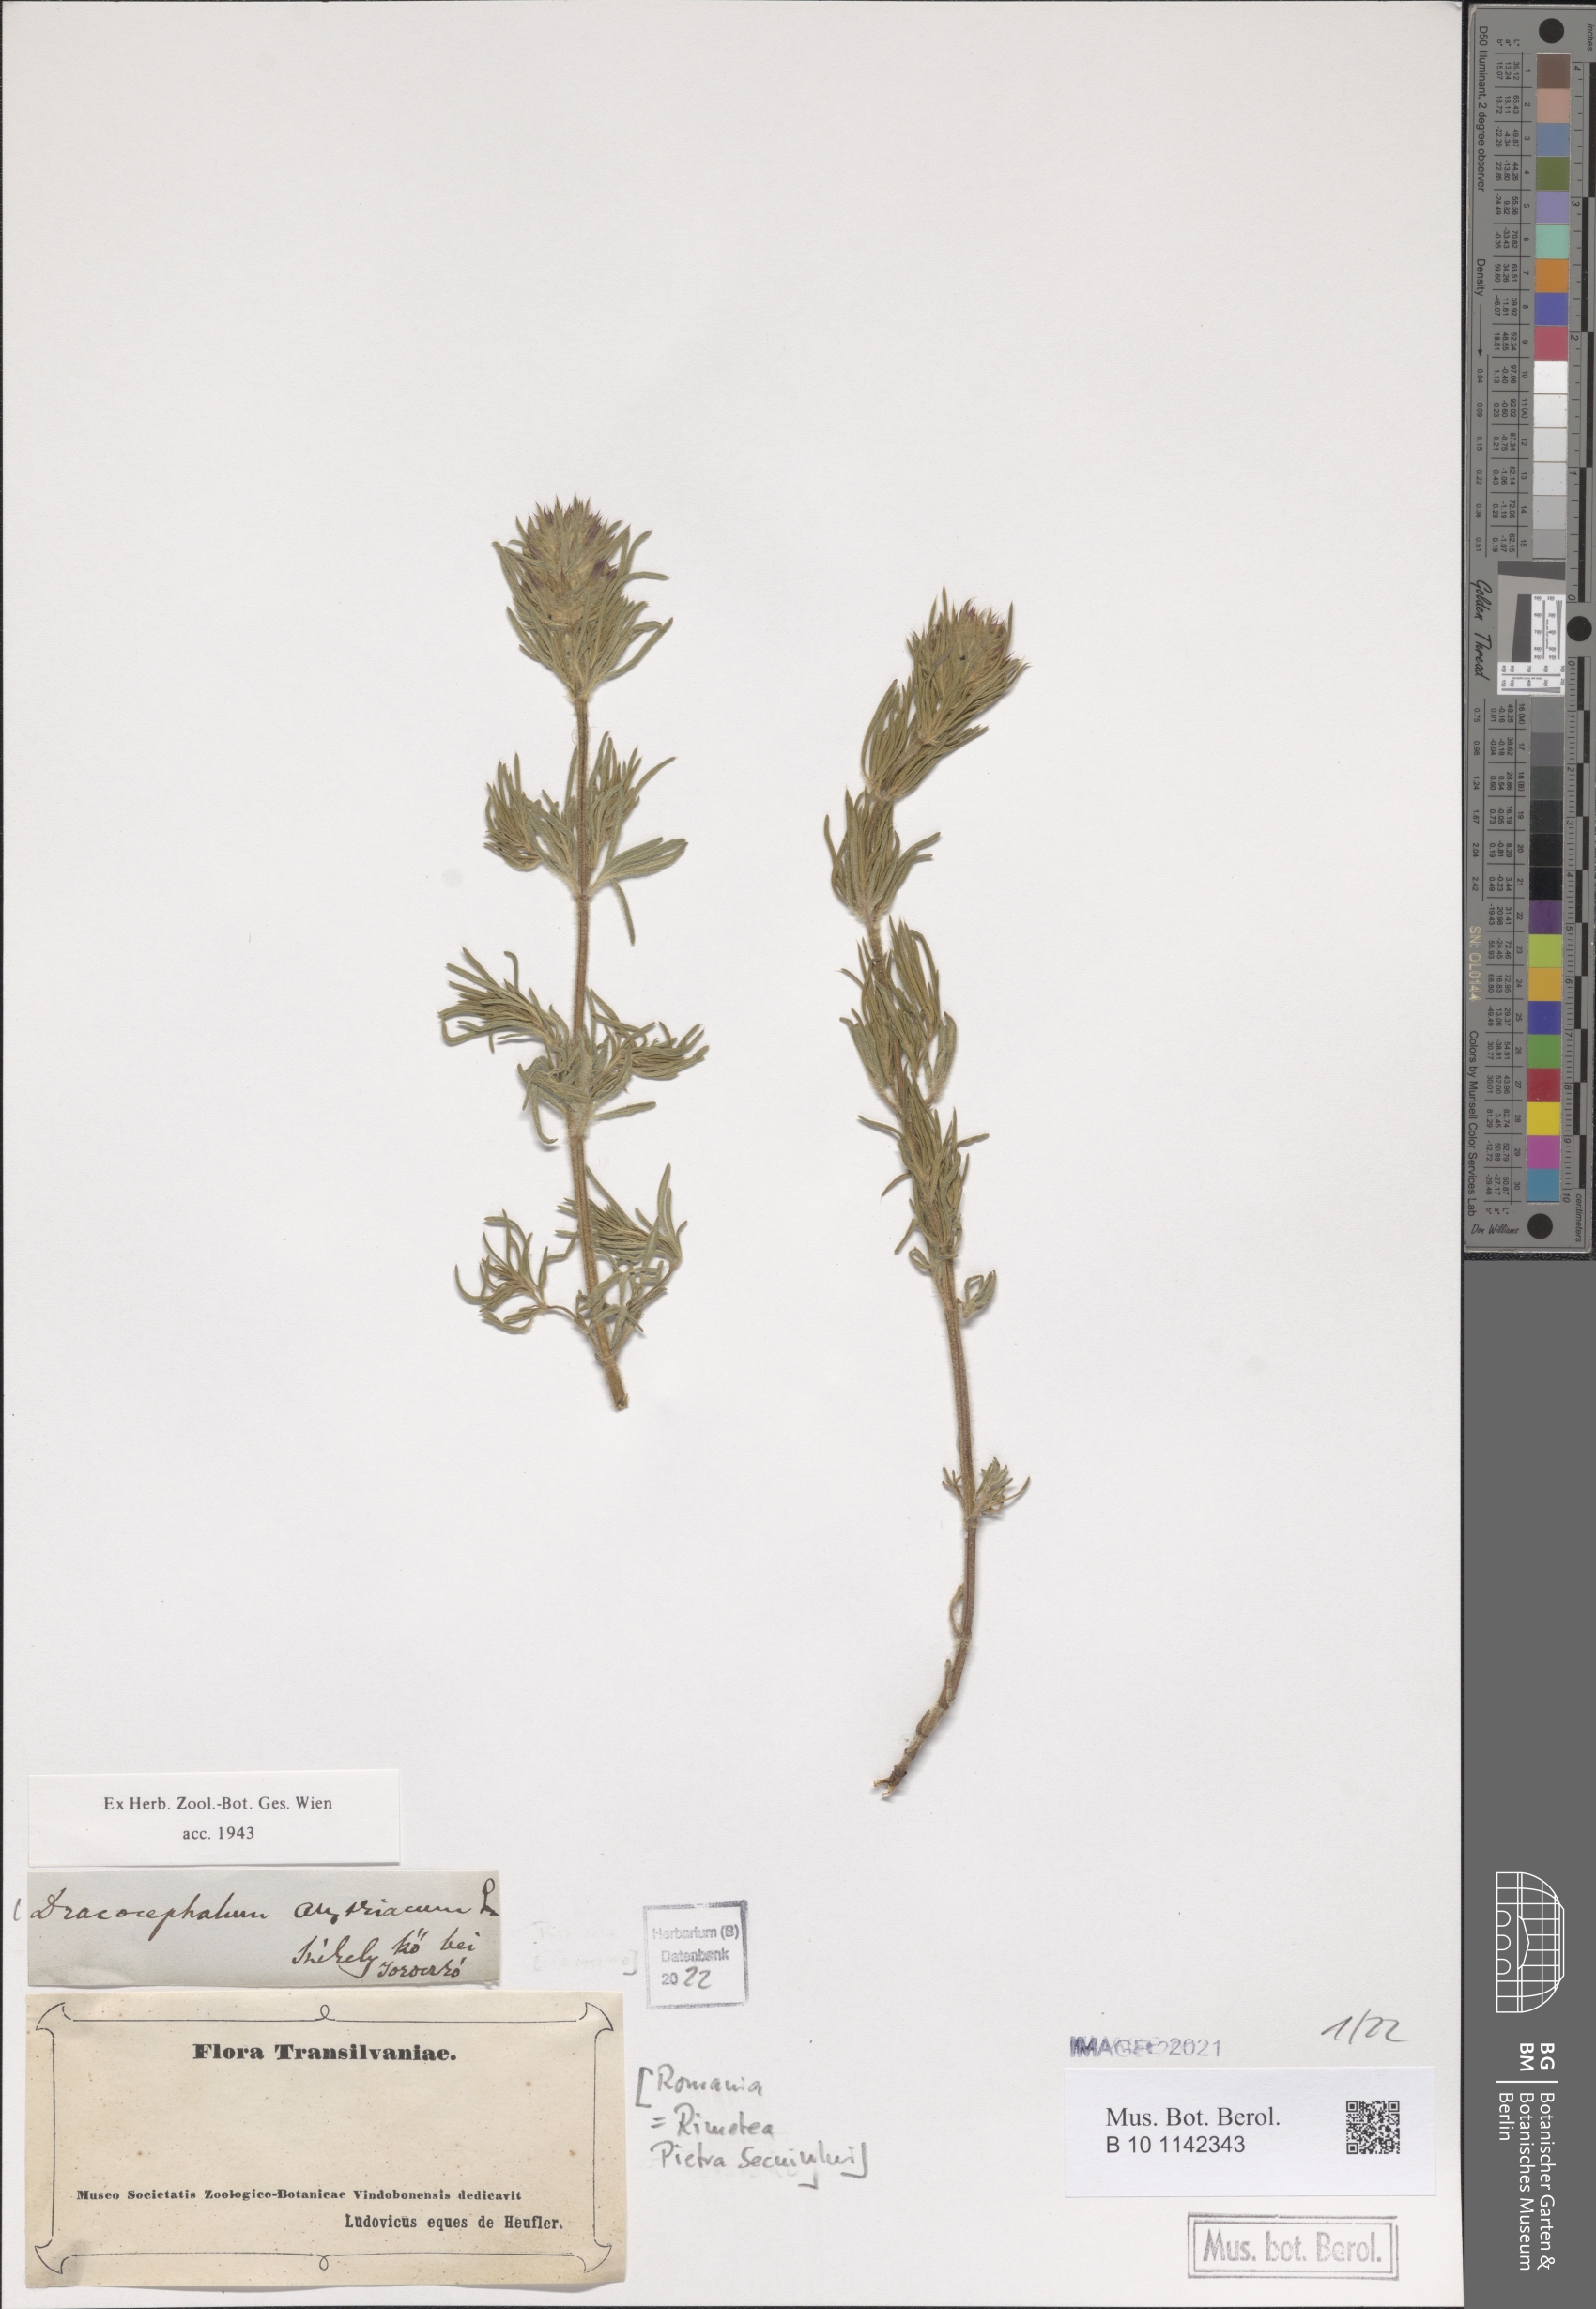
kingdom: Plantae
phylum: Tracheophyta
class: Magnoliopsida
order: Lamiales
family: Lamiaceae
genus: Dracocephalum
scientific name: Dracocephalum austriacum
